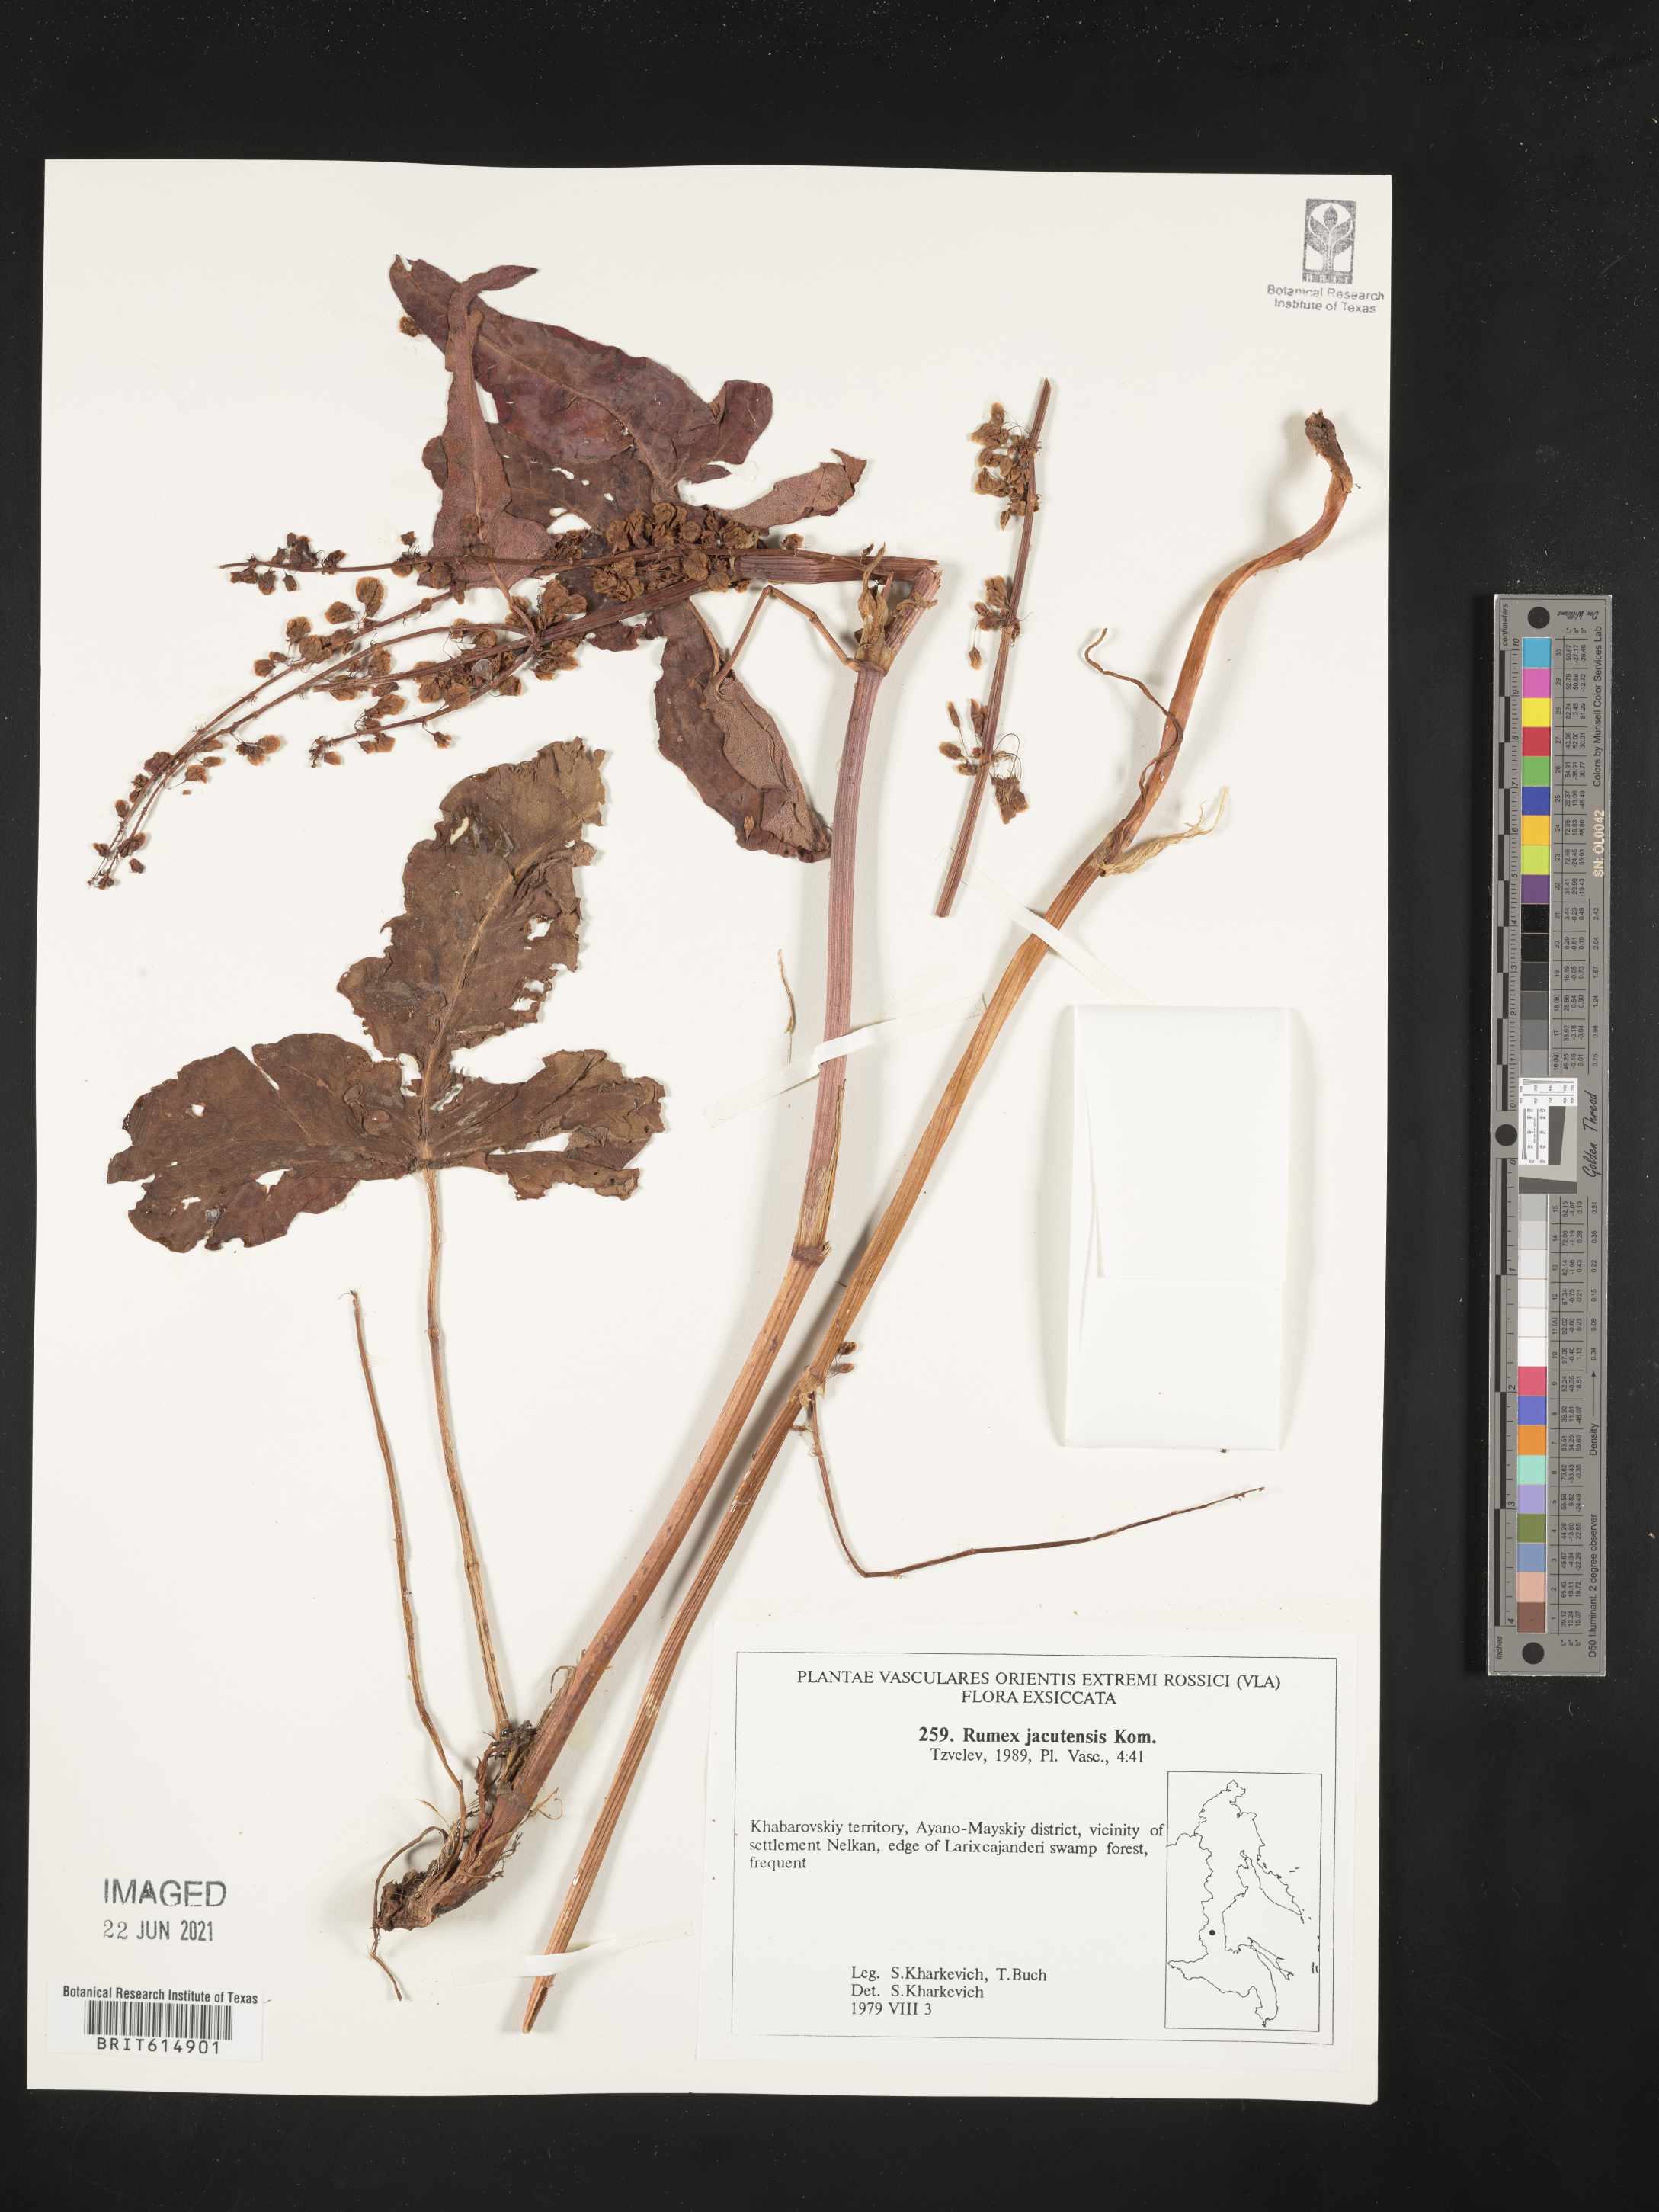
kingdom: Plantae
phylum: Tracheophyta
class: Magnoliopsida
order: Caryophyllales
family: Polygonaceae
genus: Rumex
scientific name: Rumex jacutensis
